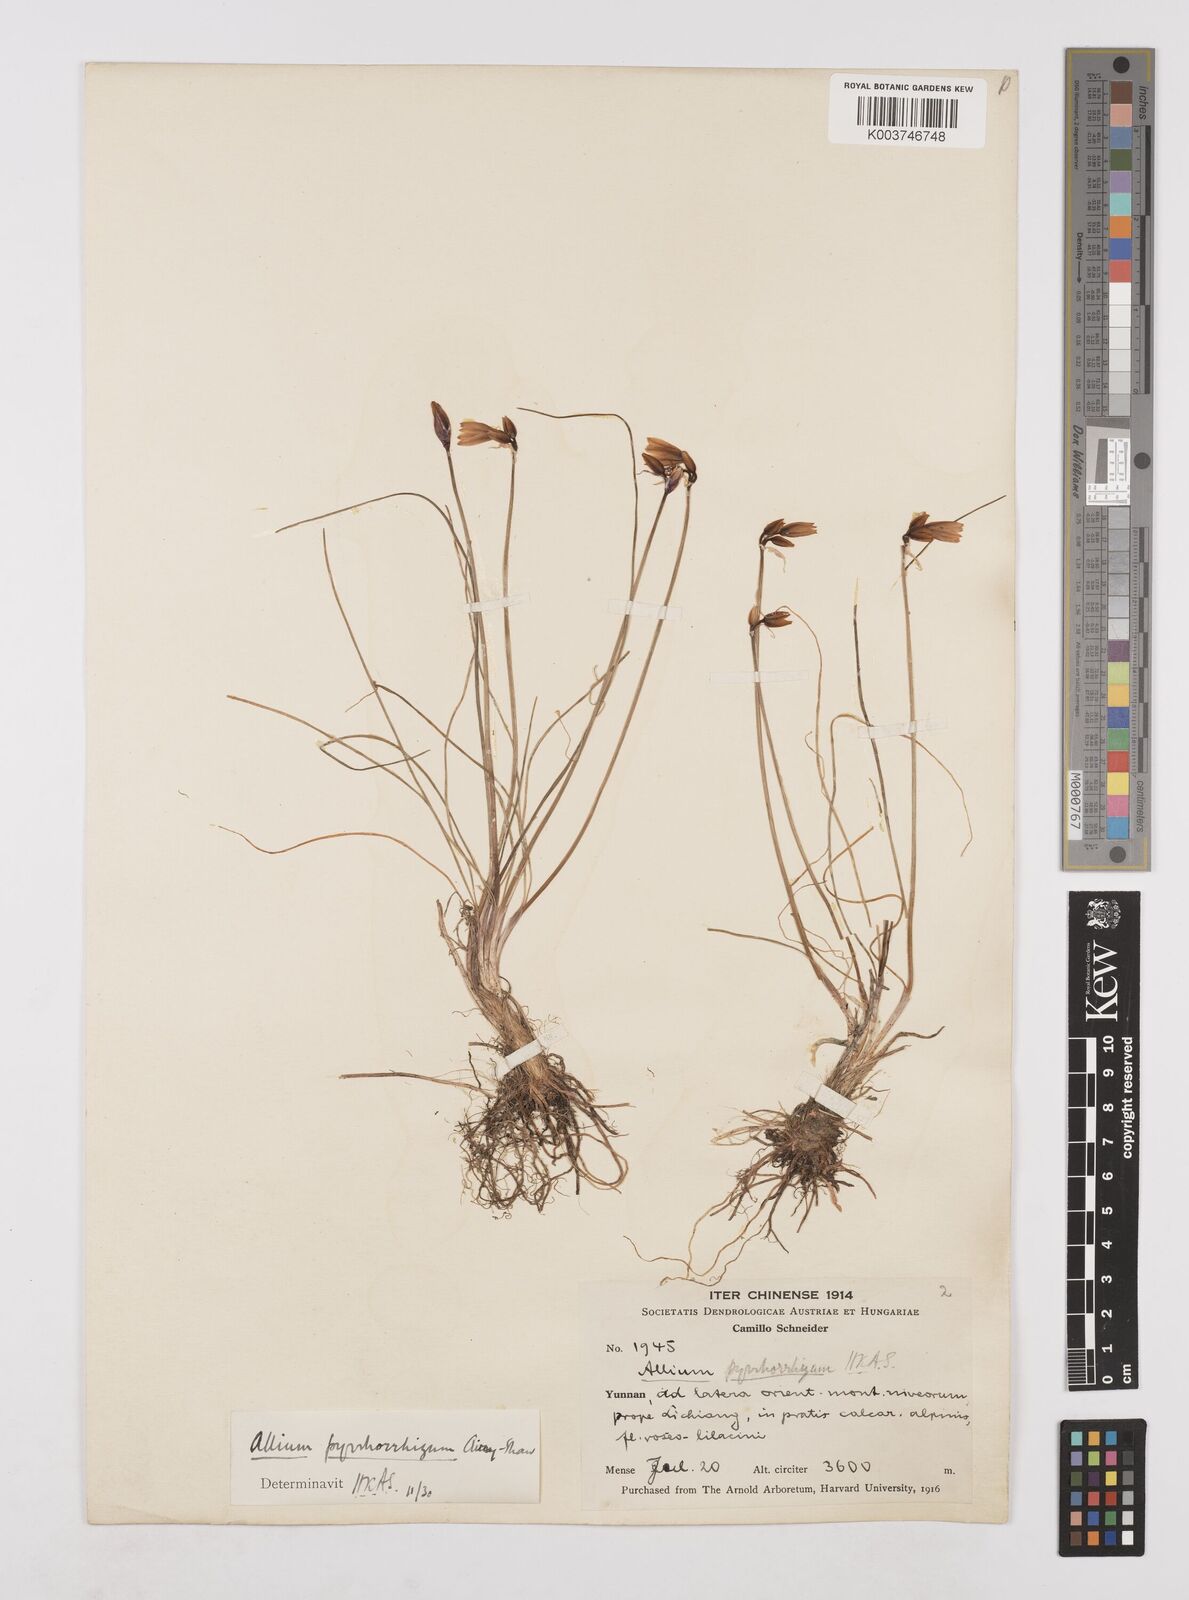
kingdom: Plantae
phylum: Tracheophyta
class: Liliopsida
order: Asparagales
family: Amaryllidaceae
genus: Allium
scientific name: Allium mairei
